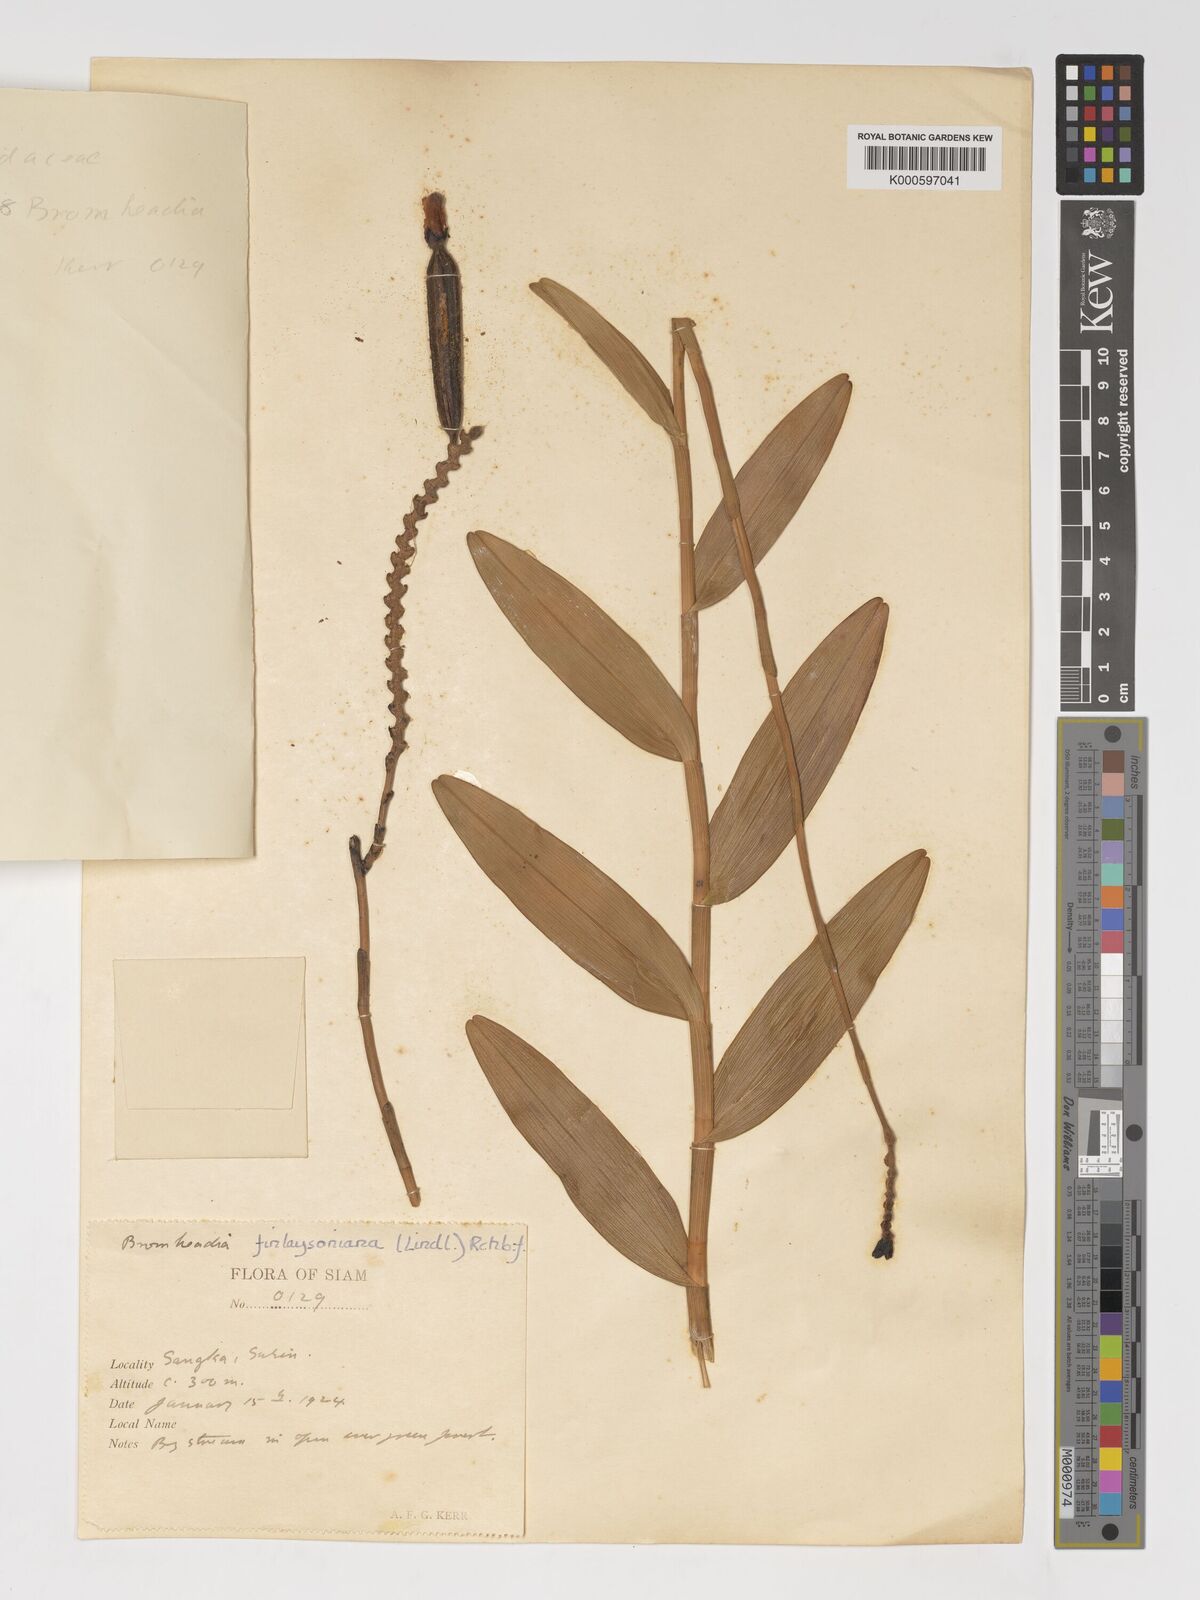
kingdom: Plantae
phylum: Tracheophyta
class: Liliopsida
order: Asparagales
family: Orchidaceae
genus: Bromheadia
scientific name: Bromheadia
